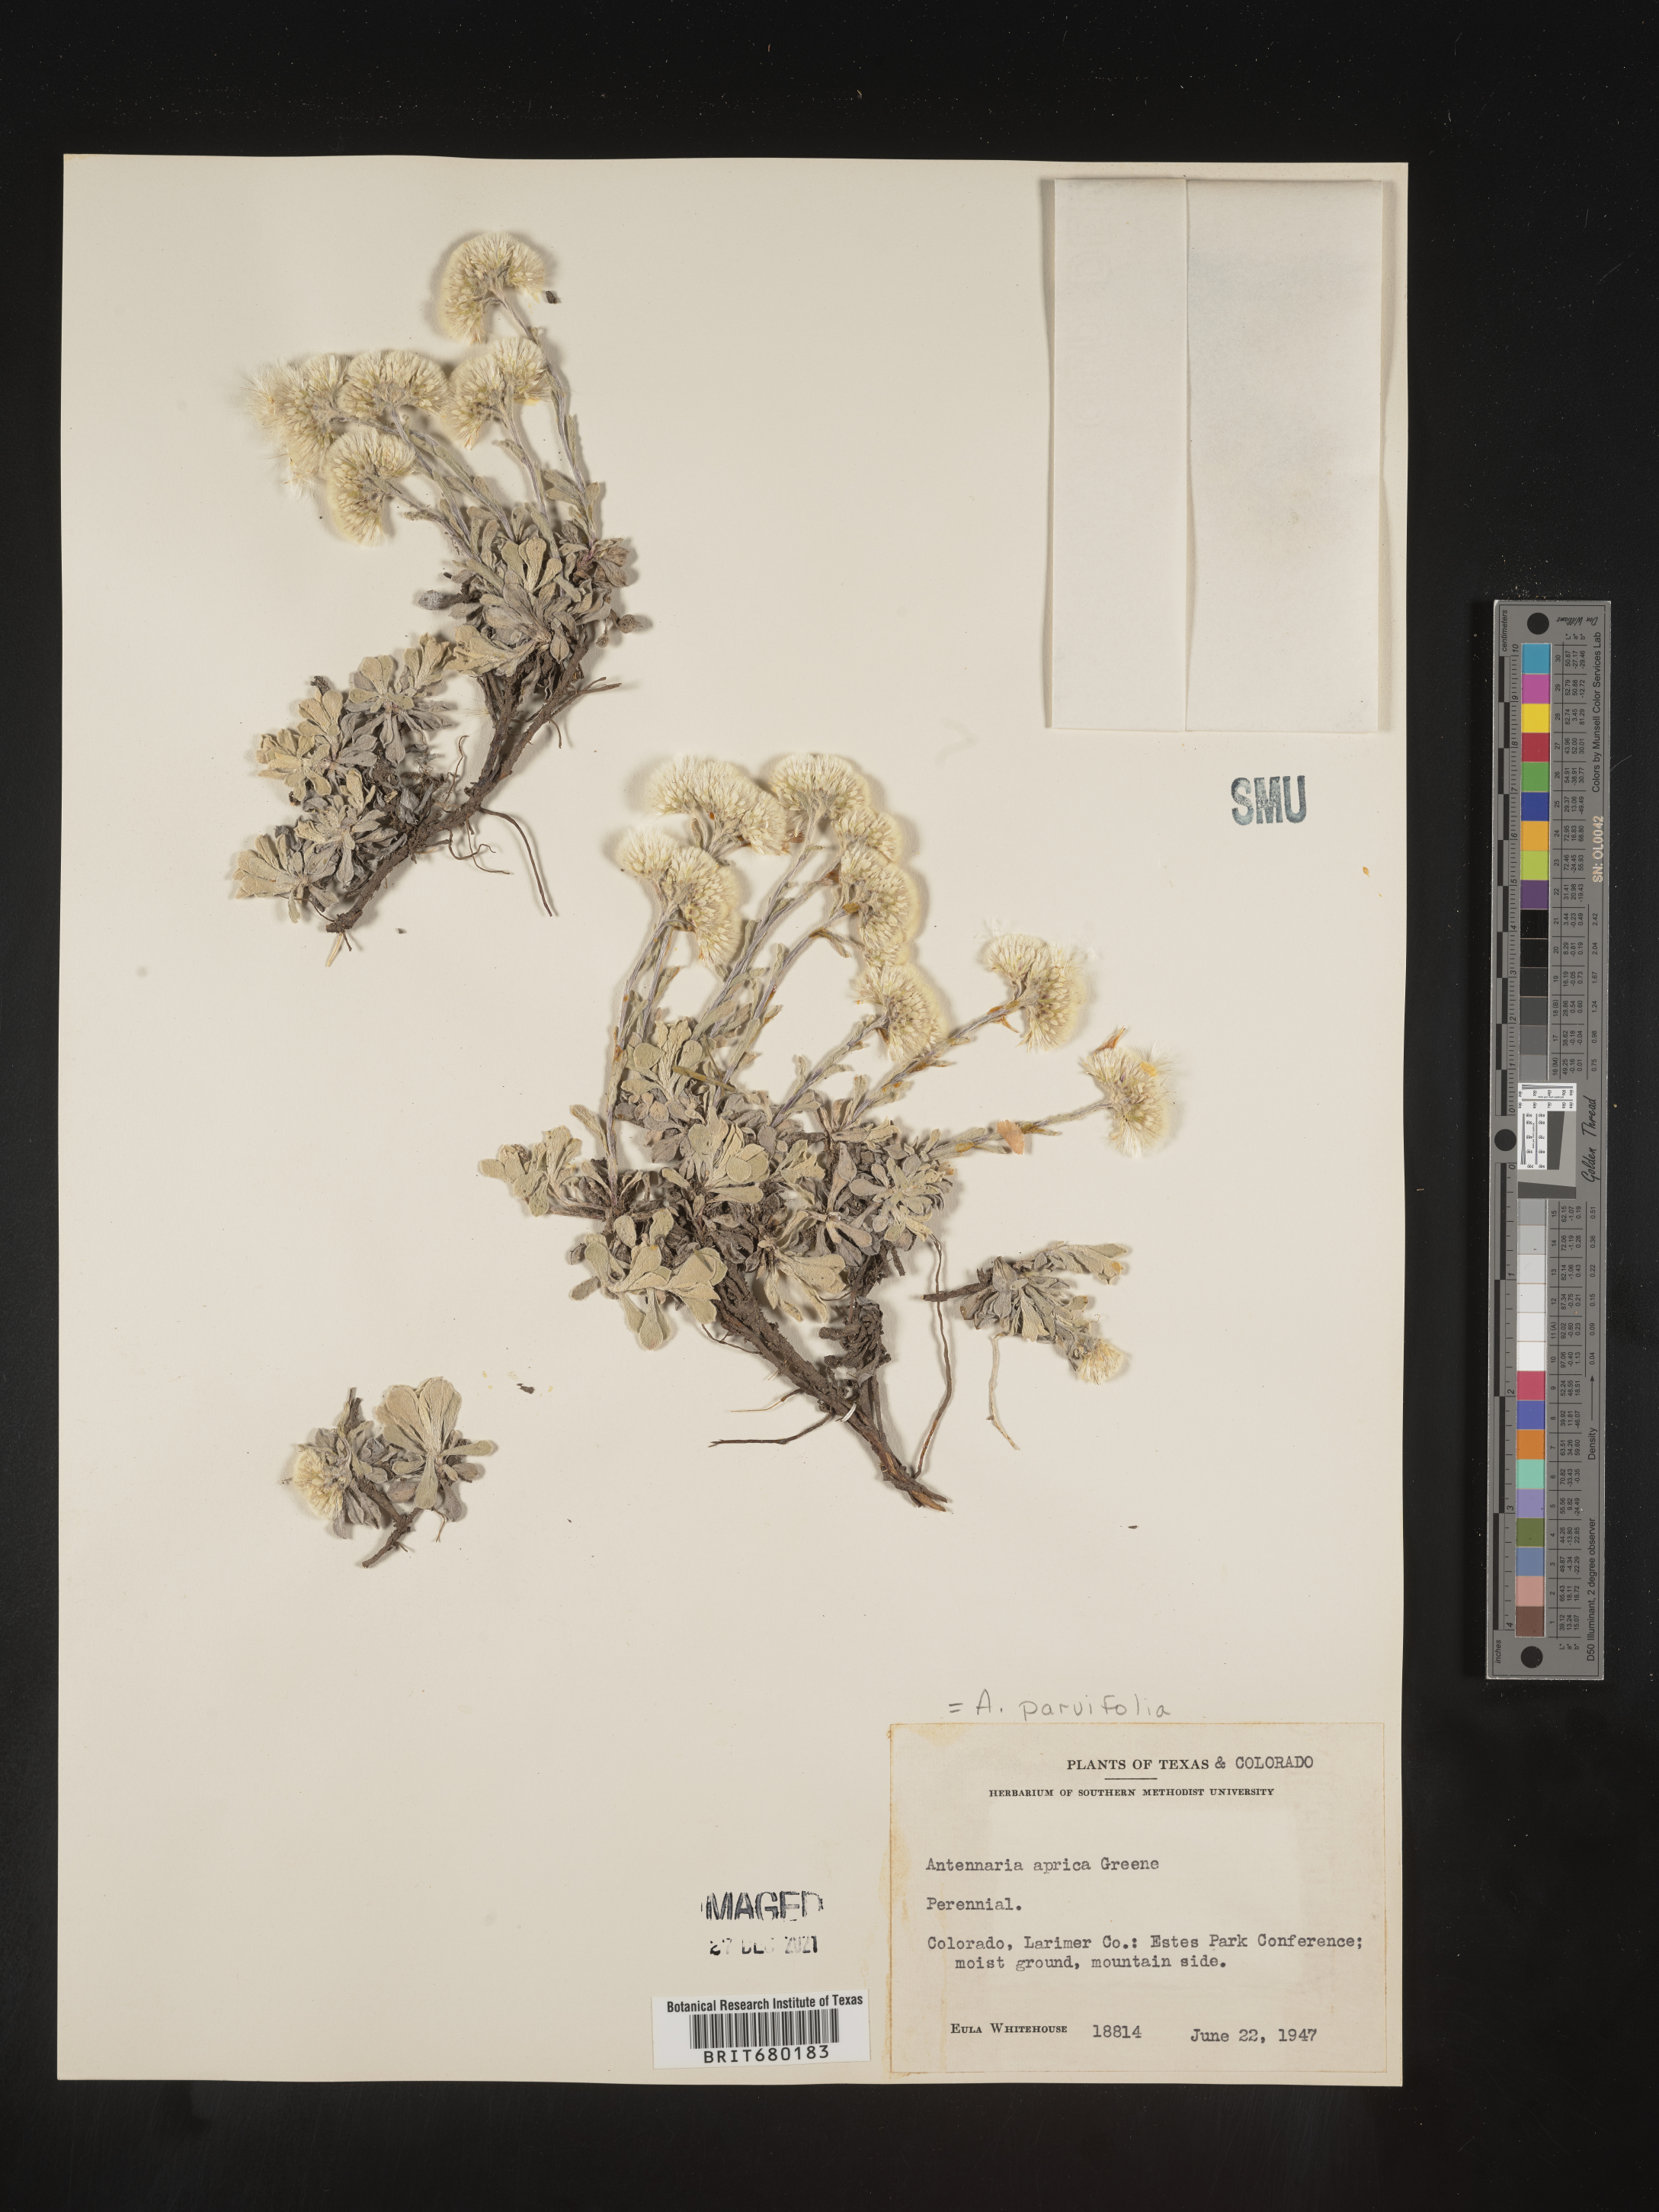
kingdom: Plantae
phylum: Tracheophyta
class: Magnoliopsida
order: Asterales
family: Asteraceae
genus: Antennaria
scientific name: Antennaria plantaginifolia
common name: Plantain-leaved pussytoes
